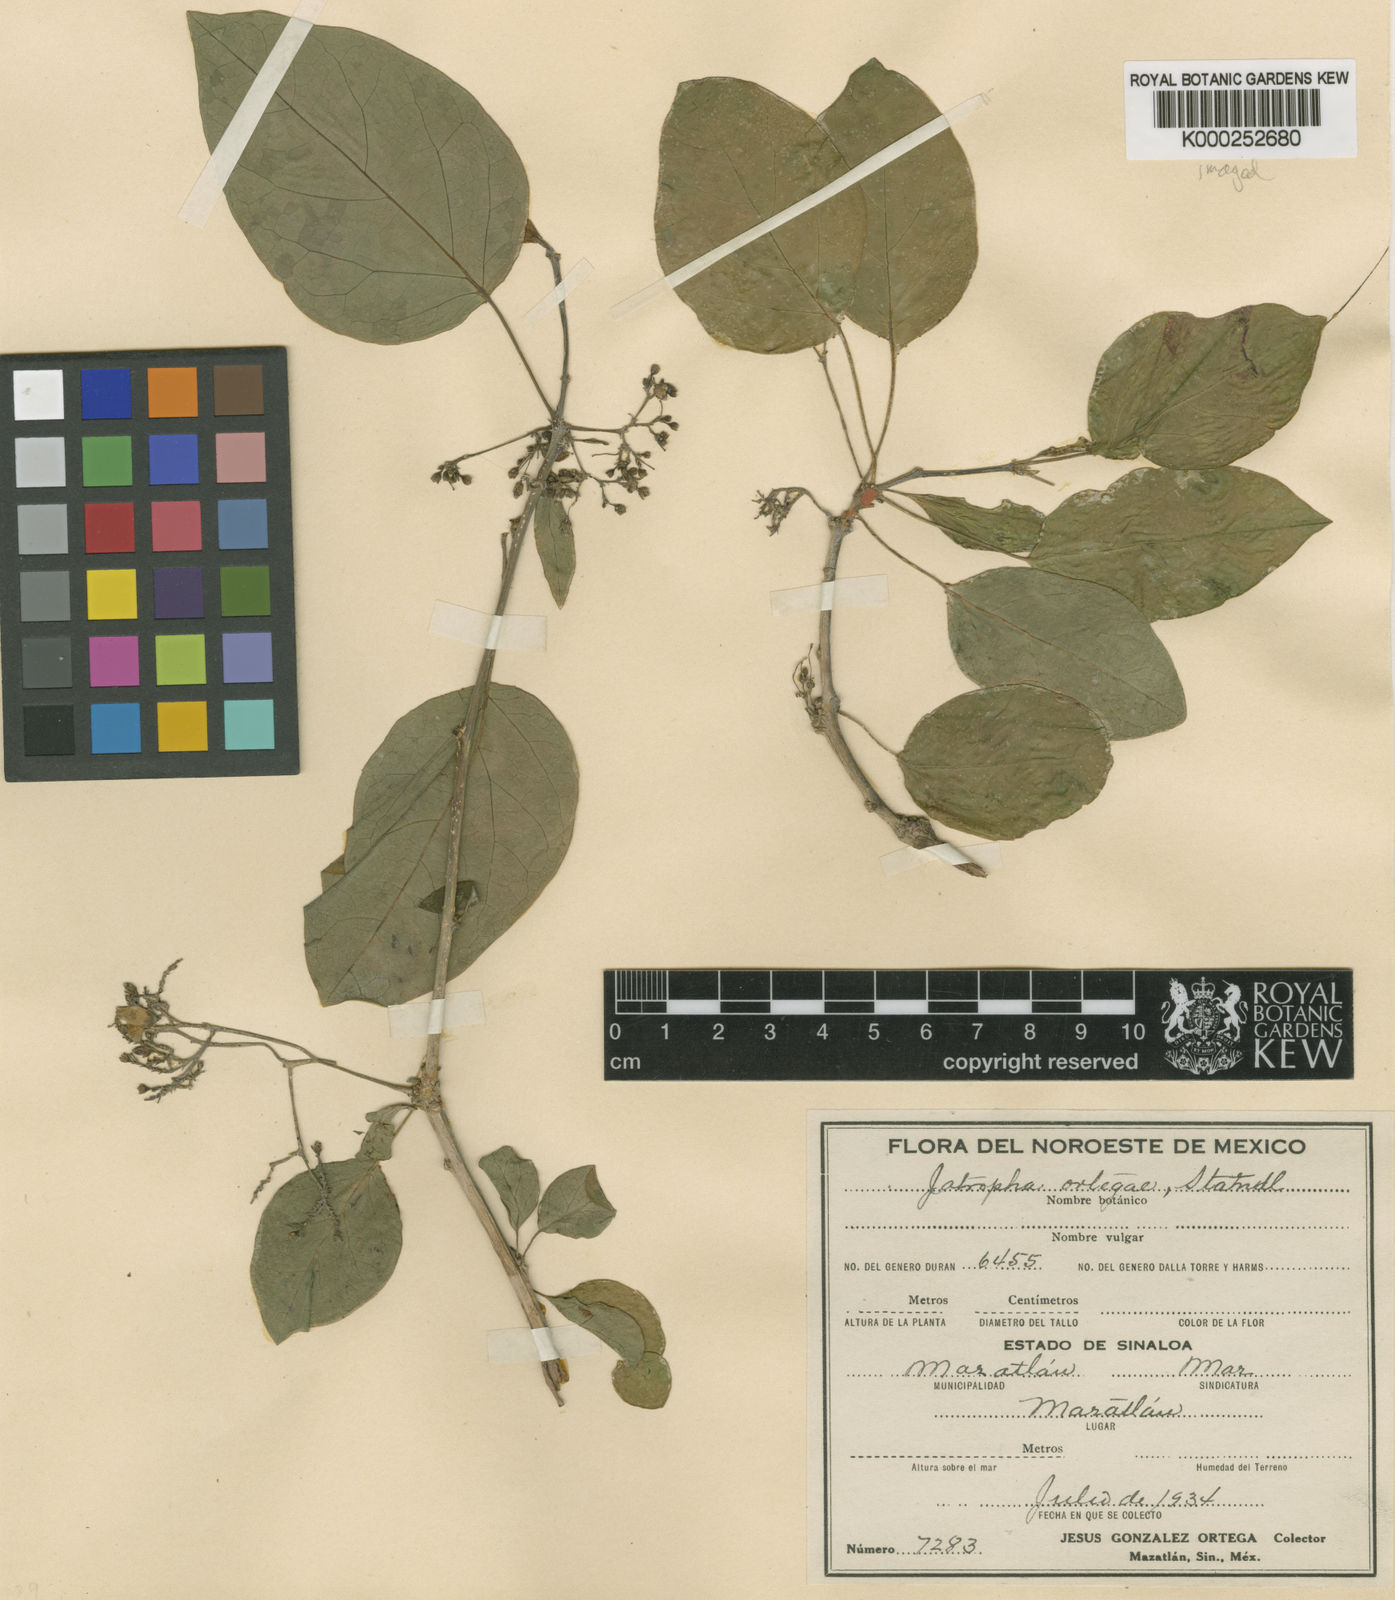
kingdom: Plantae
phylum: Tracheophyta
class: Magnoliopsida
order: Malpighiales
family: Euphorbiaceae
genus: Jatropha
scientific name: Jatropha ortegae
